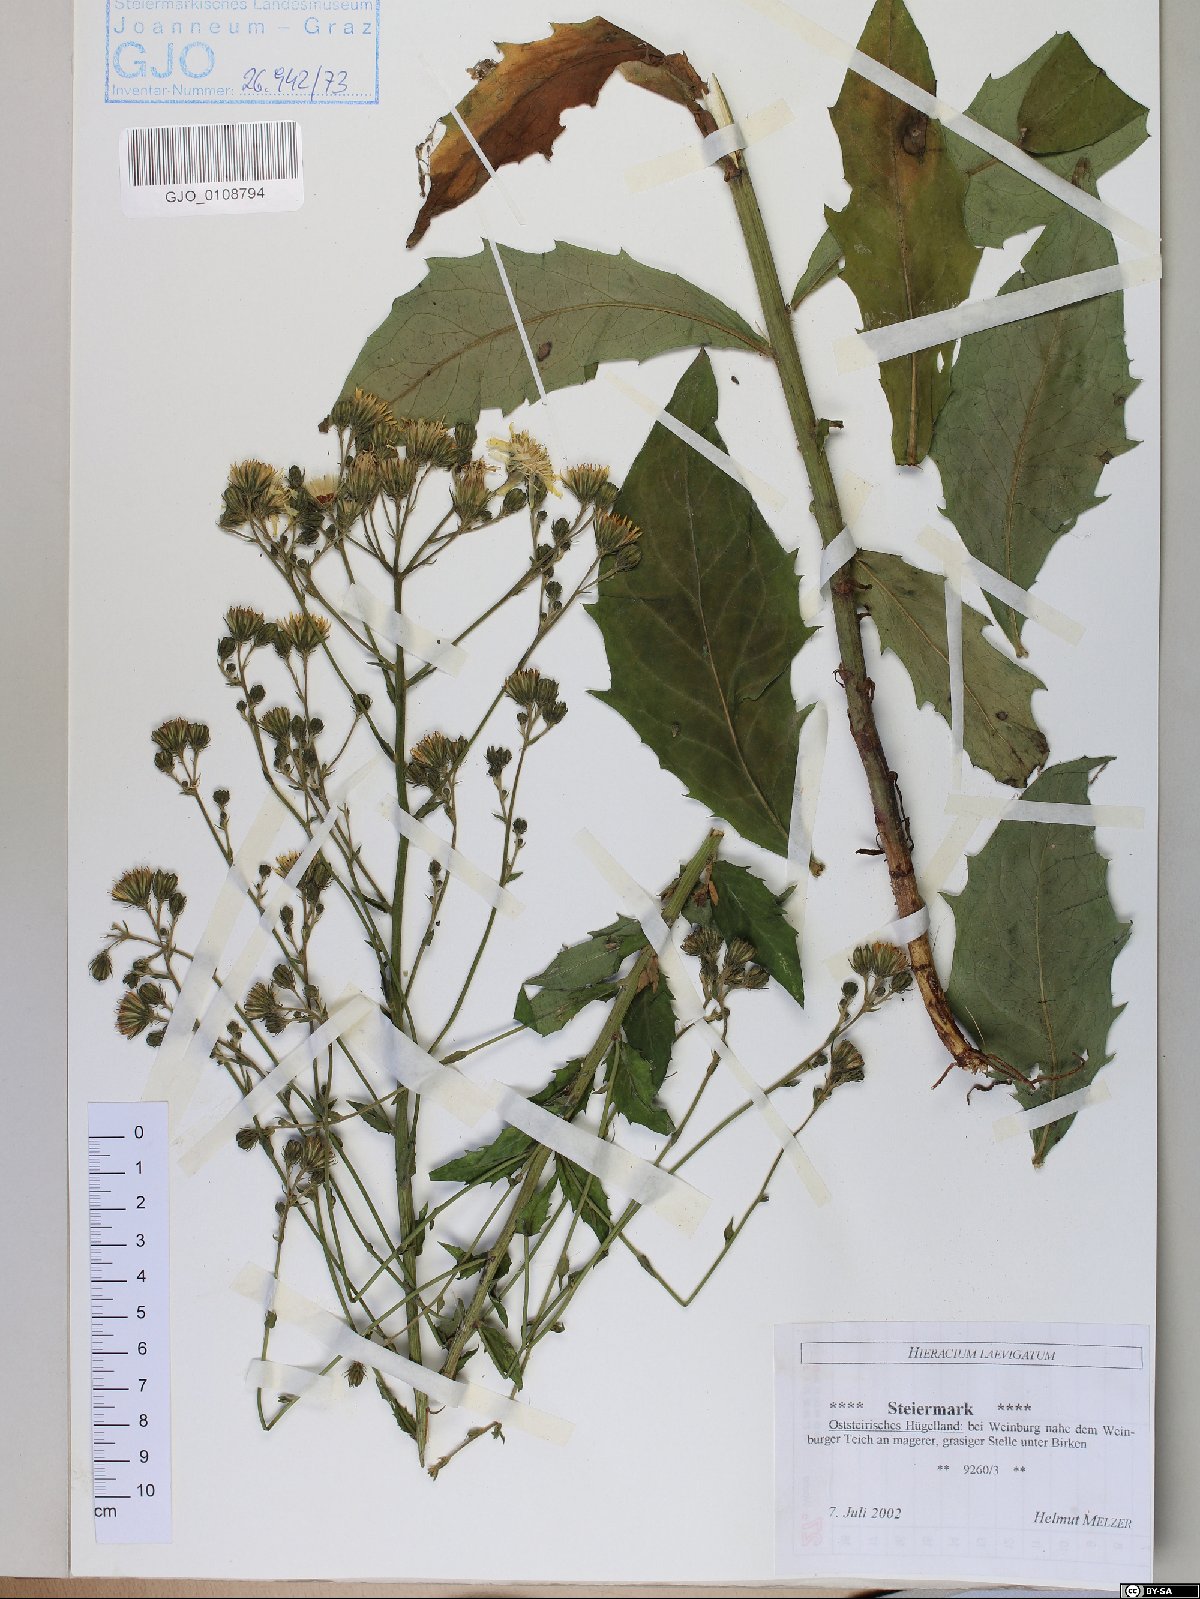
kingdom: Plantae
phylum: Tracheophyta
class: Magnoliopsida
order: Asterales
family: Asteraceae
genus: Hieracium
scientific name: Hieracium laevigatum
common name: Smooth hawkweed
